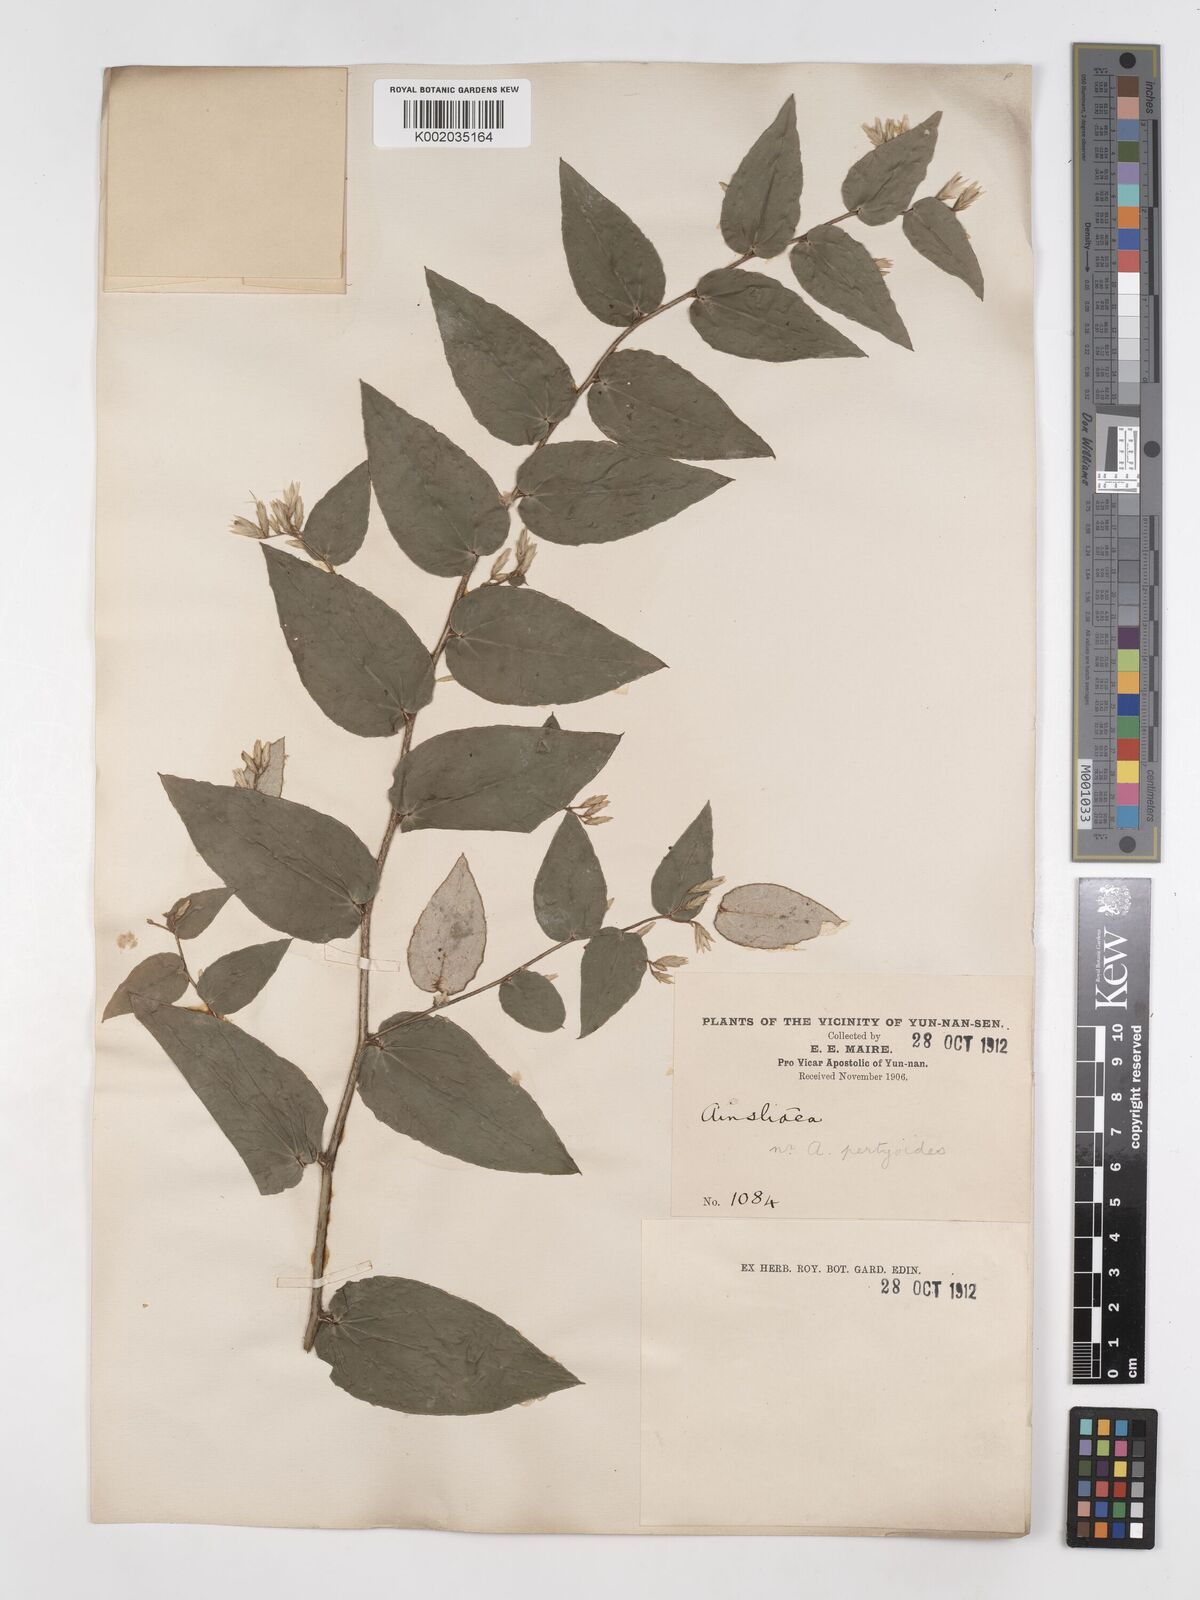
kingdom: Plantae
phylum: Tracheophyta
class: Magnoliopsida
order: Asterales
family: Asteraceae
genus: Ainsliaea
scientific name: Ainsliaea pertyoides
